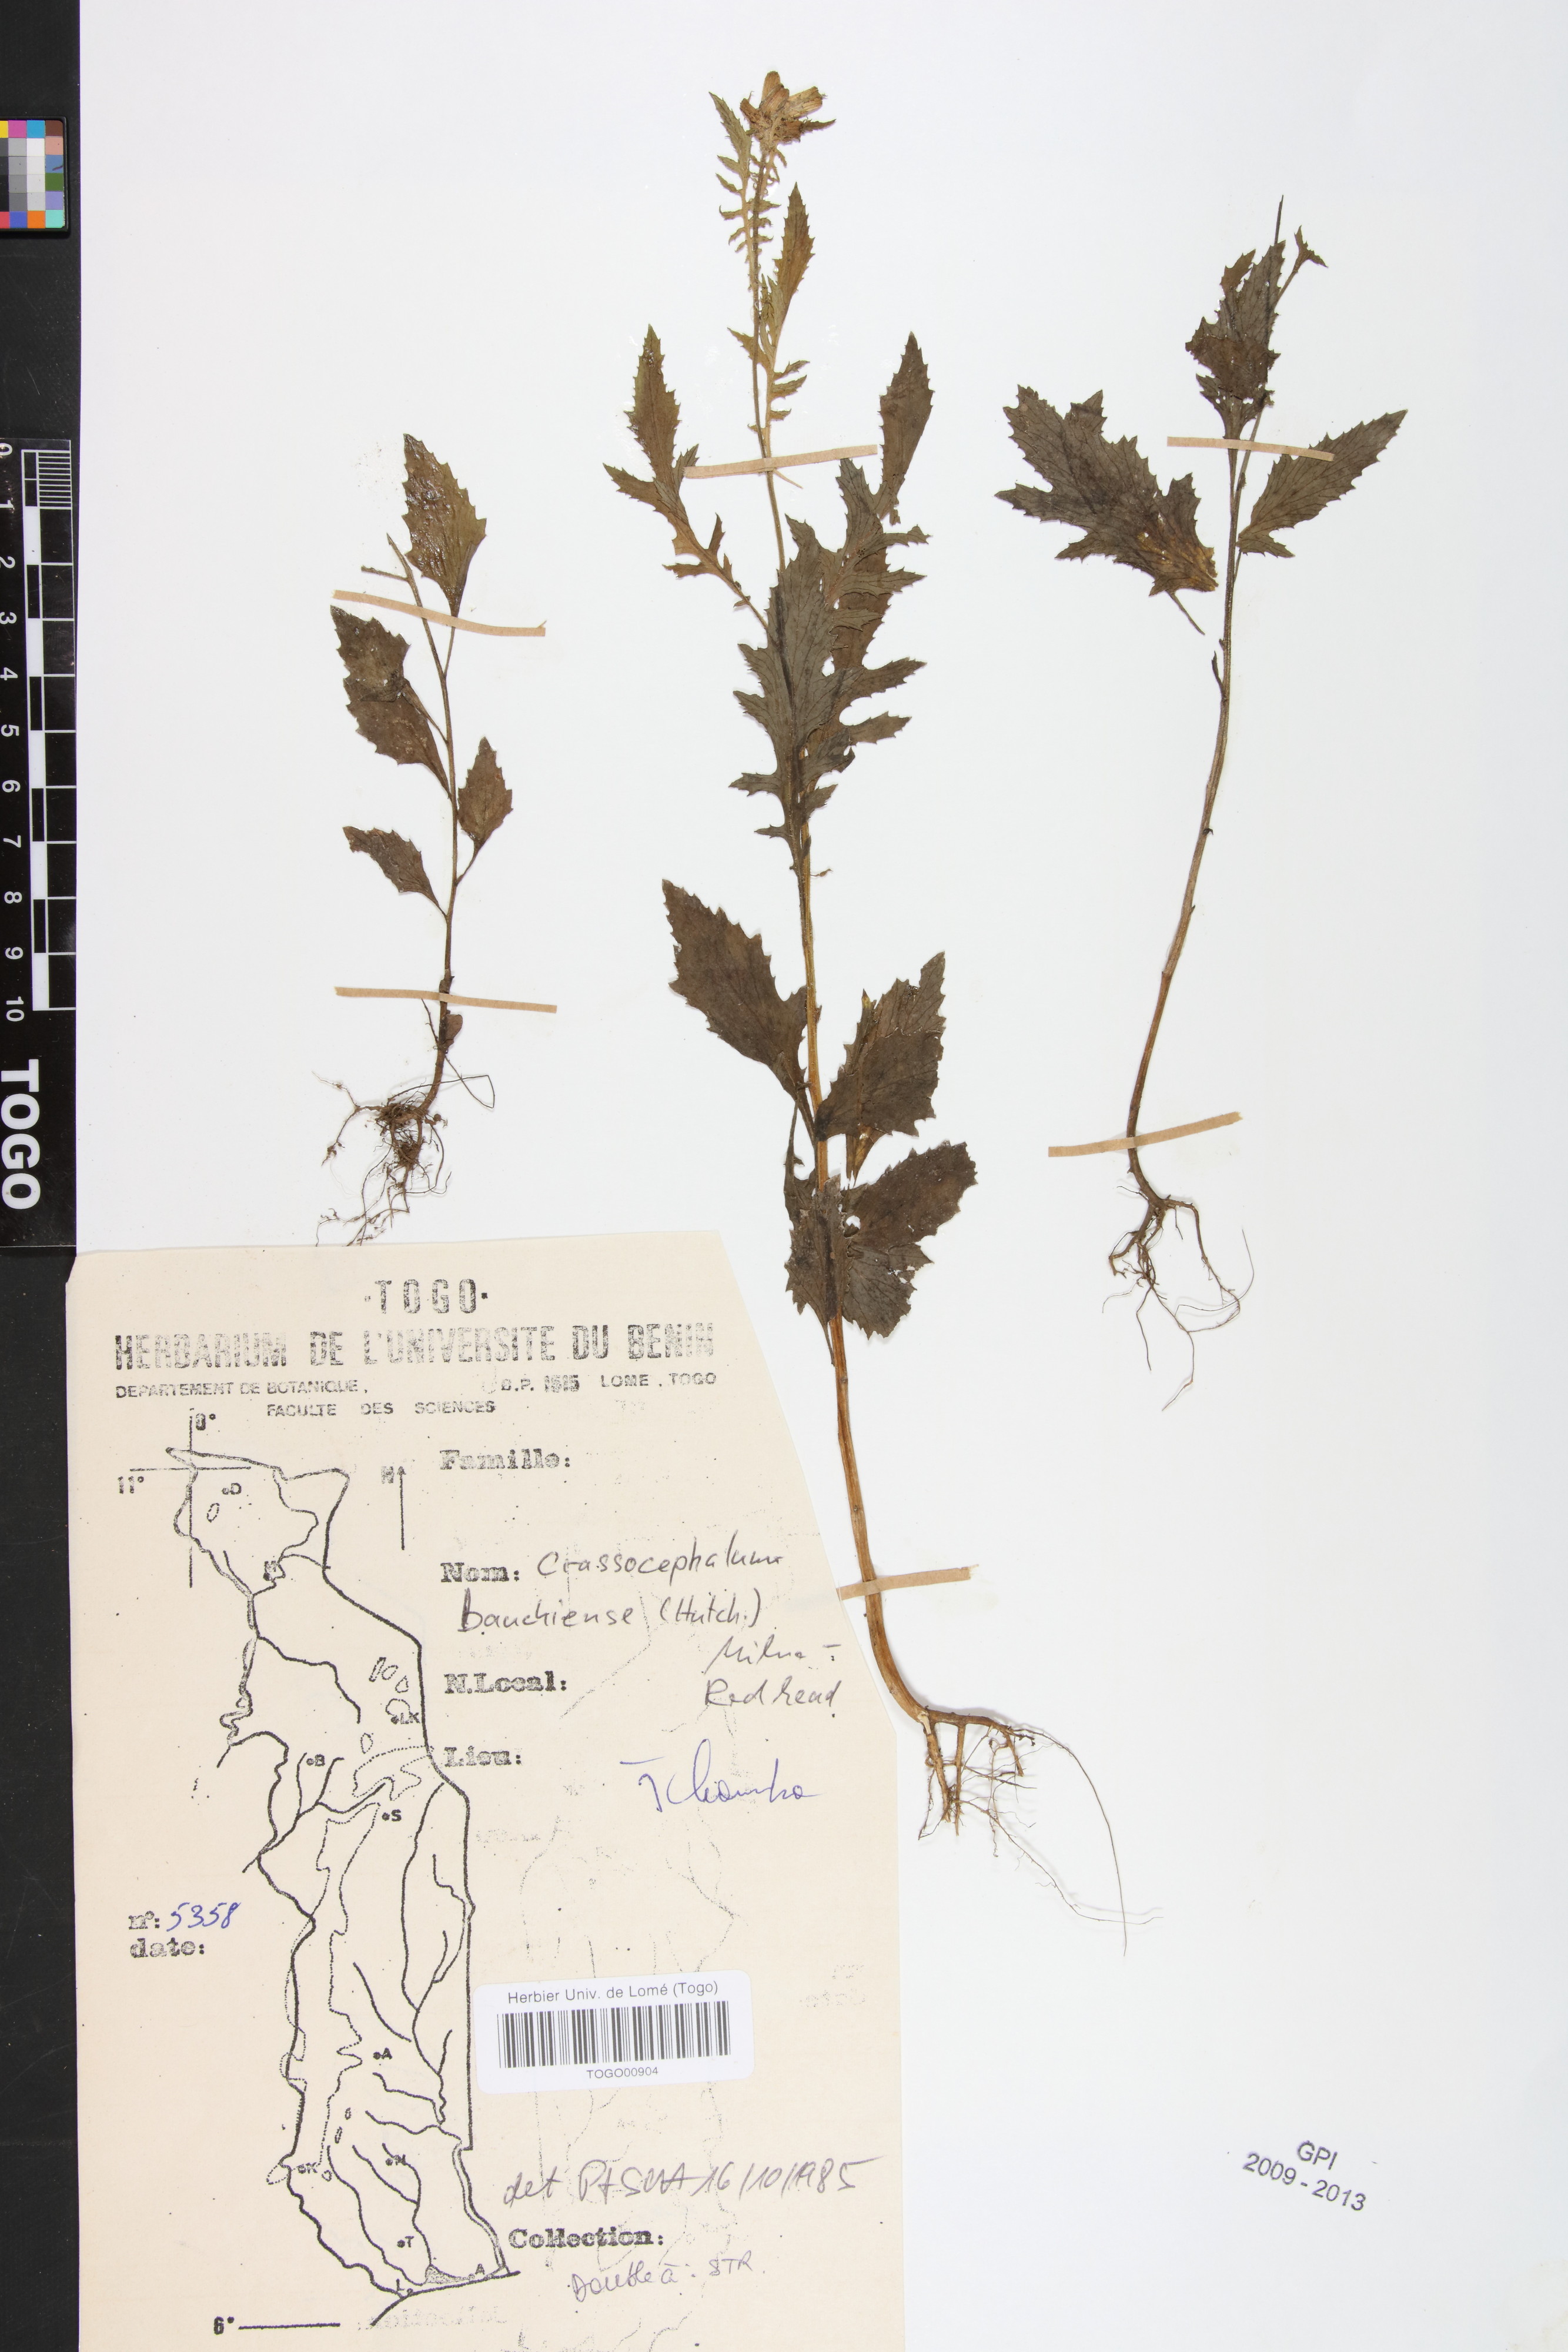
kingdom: Plantae
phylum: Tracheophyta
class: Magnoliopsida
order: Asterales
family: Asteraceae
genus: Crassocephalum
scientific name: Crassocephalum bauchiense
